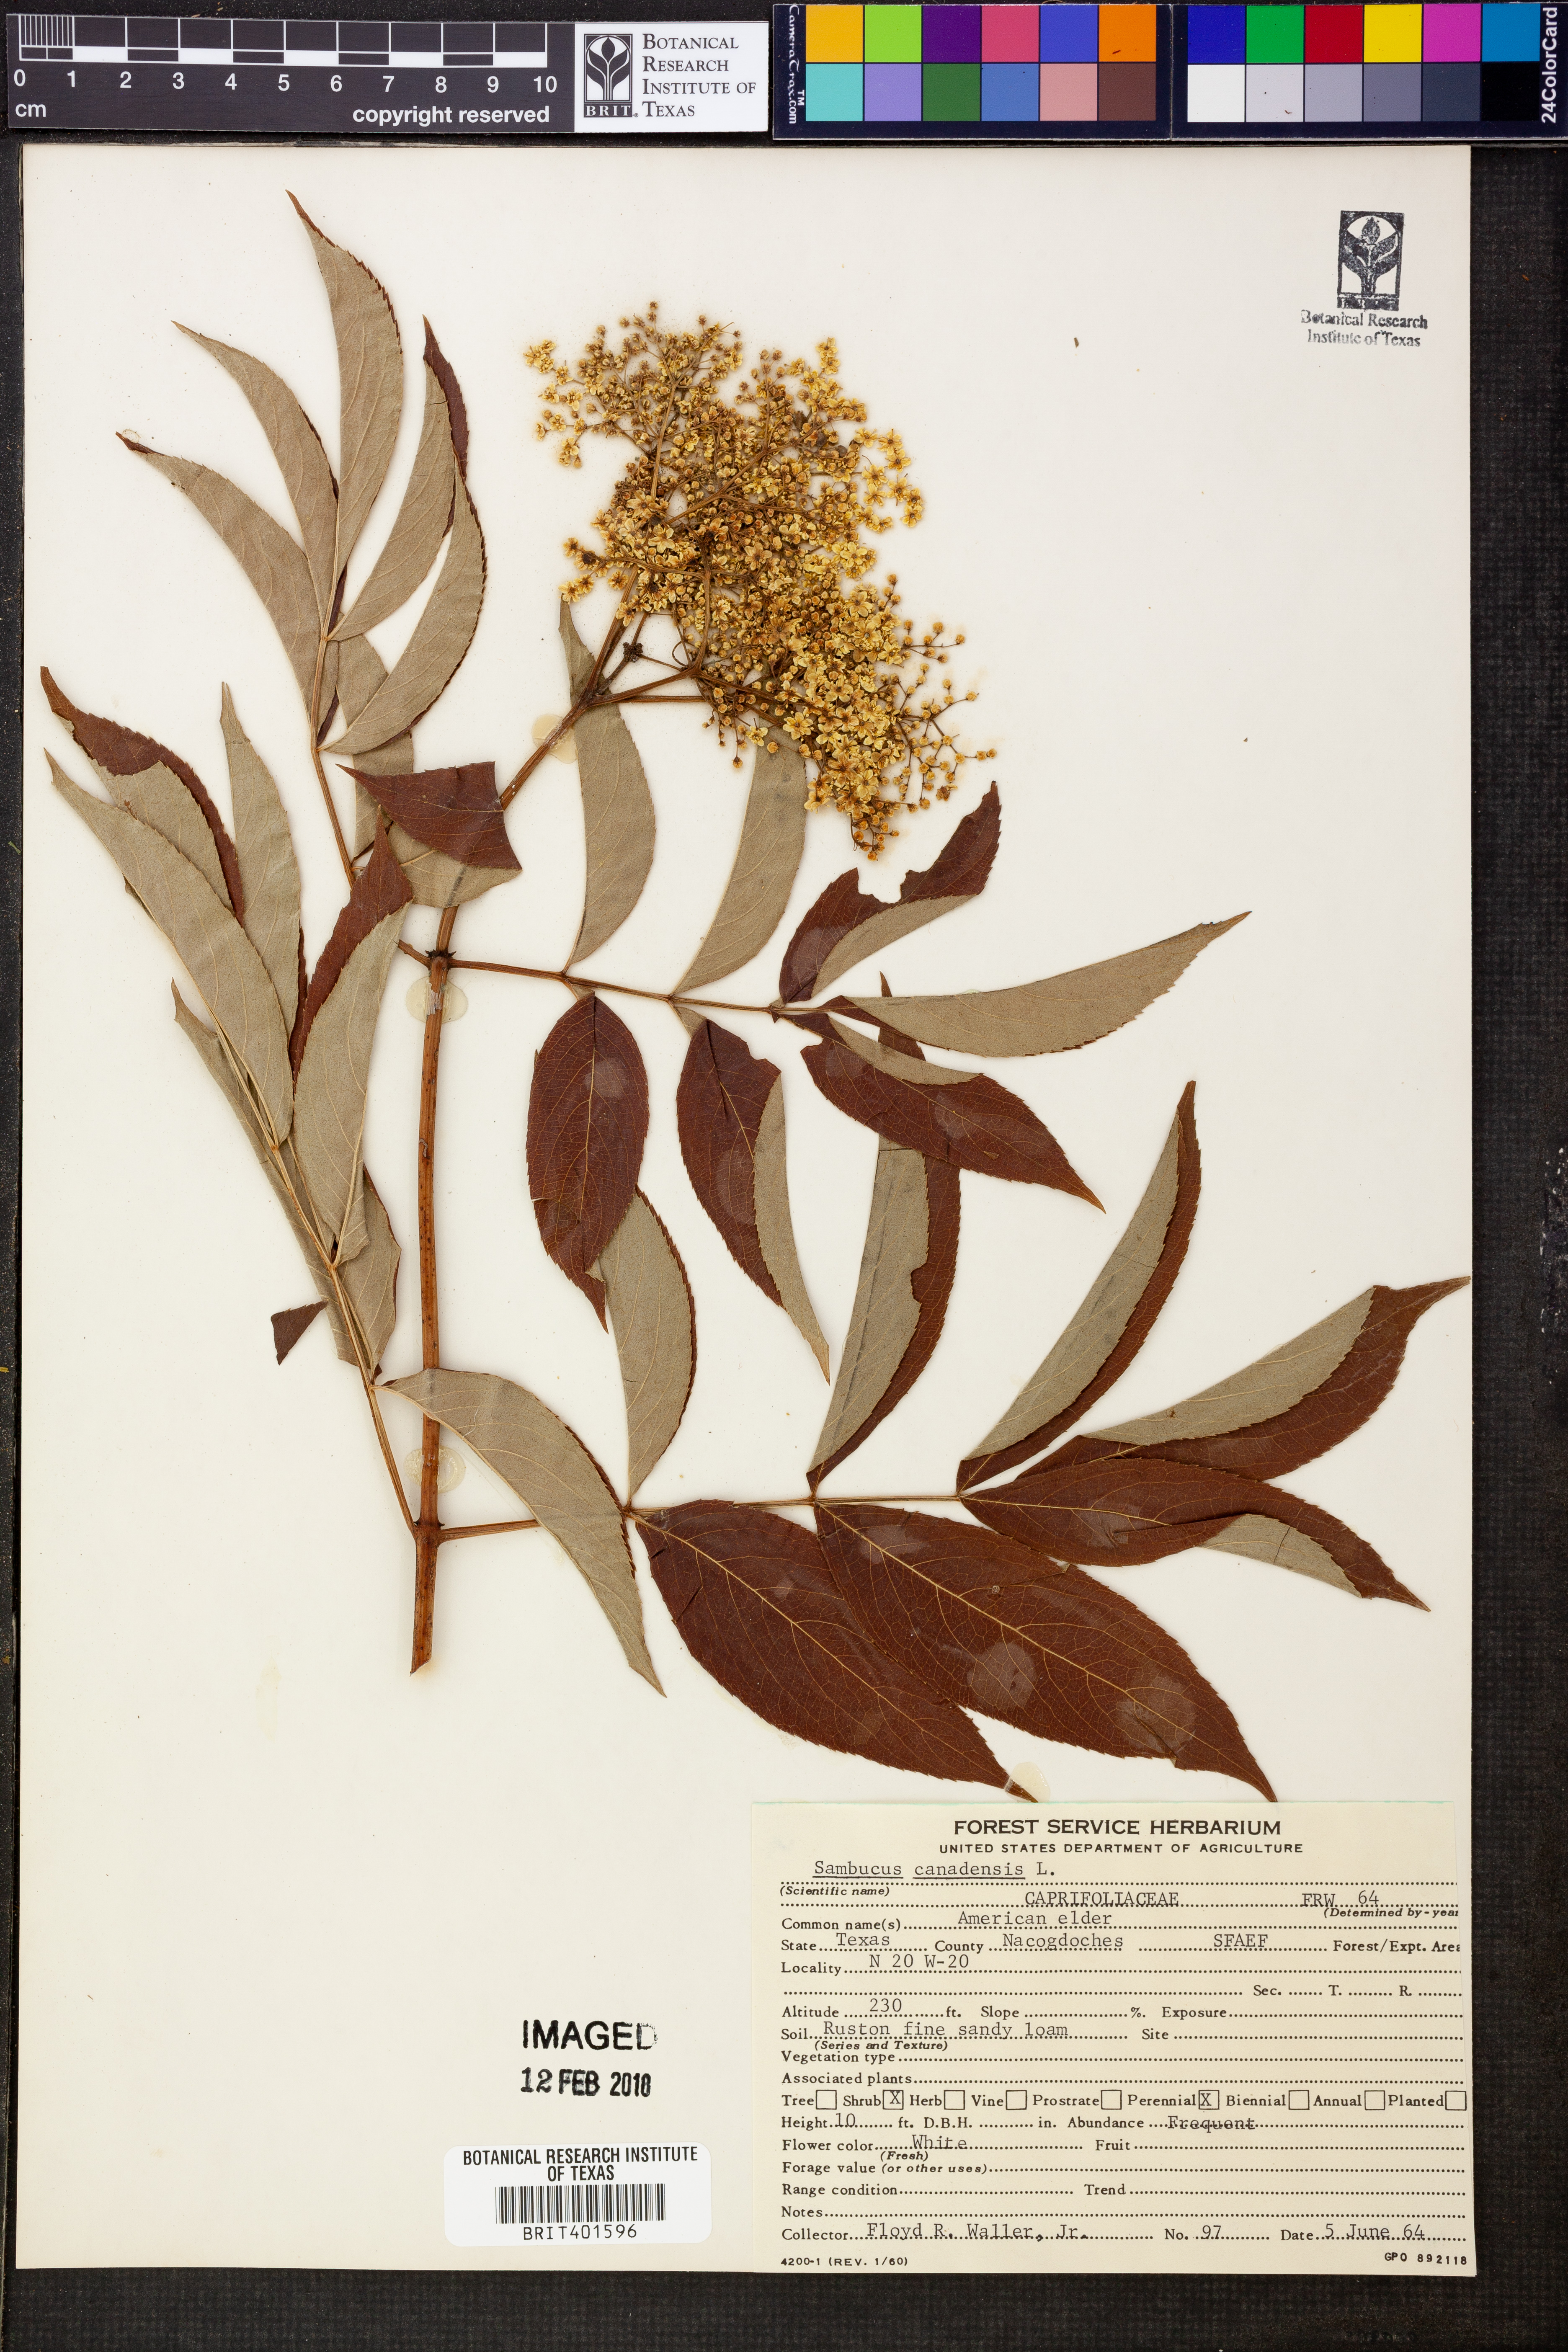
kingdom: Plantae
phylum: Tracheophyta
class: Magnoliopsida
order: Dipsacales
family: Viburnaceae
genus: Sambucus
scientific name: Sambucus canadensis
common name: American elder
